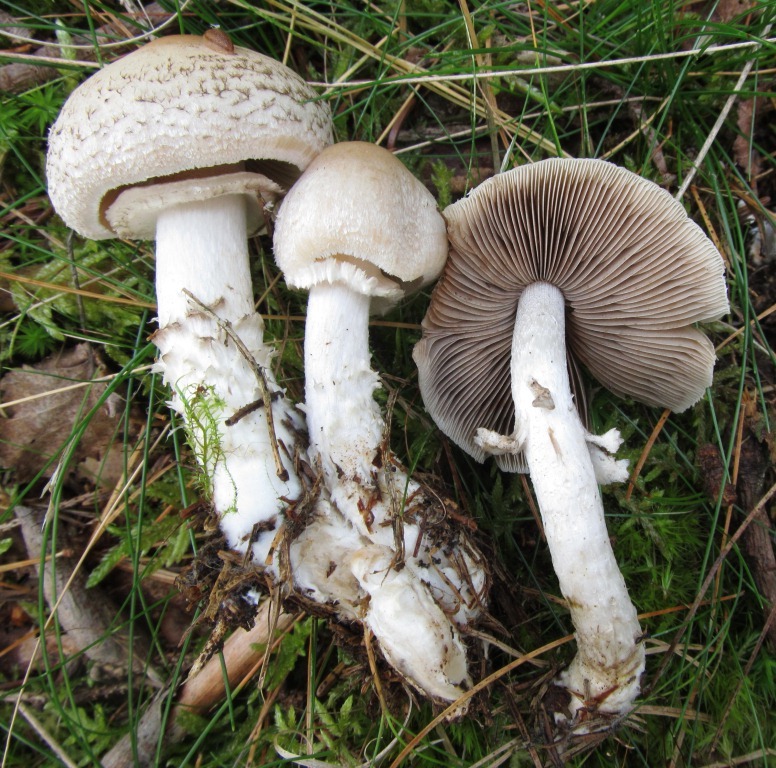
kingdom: Fungi
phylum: Basidiomycota
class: Agaricomycetes
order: Agaricales
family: Psathyrellaceae
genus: Psathyrella
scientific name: Psathyrella caput-medusae
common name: medusa-mørkhat
